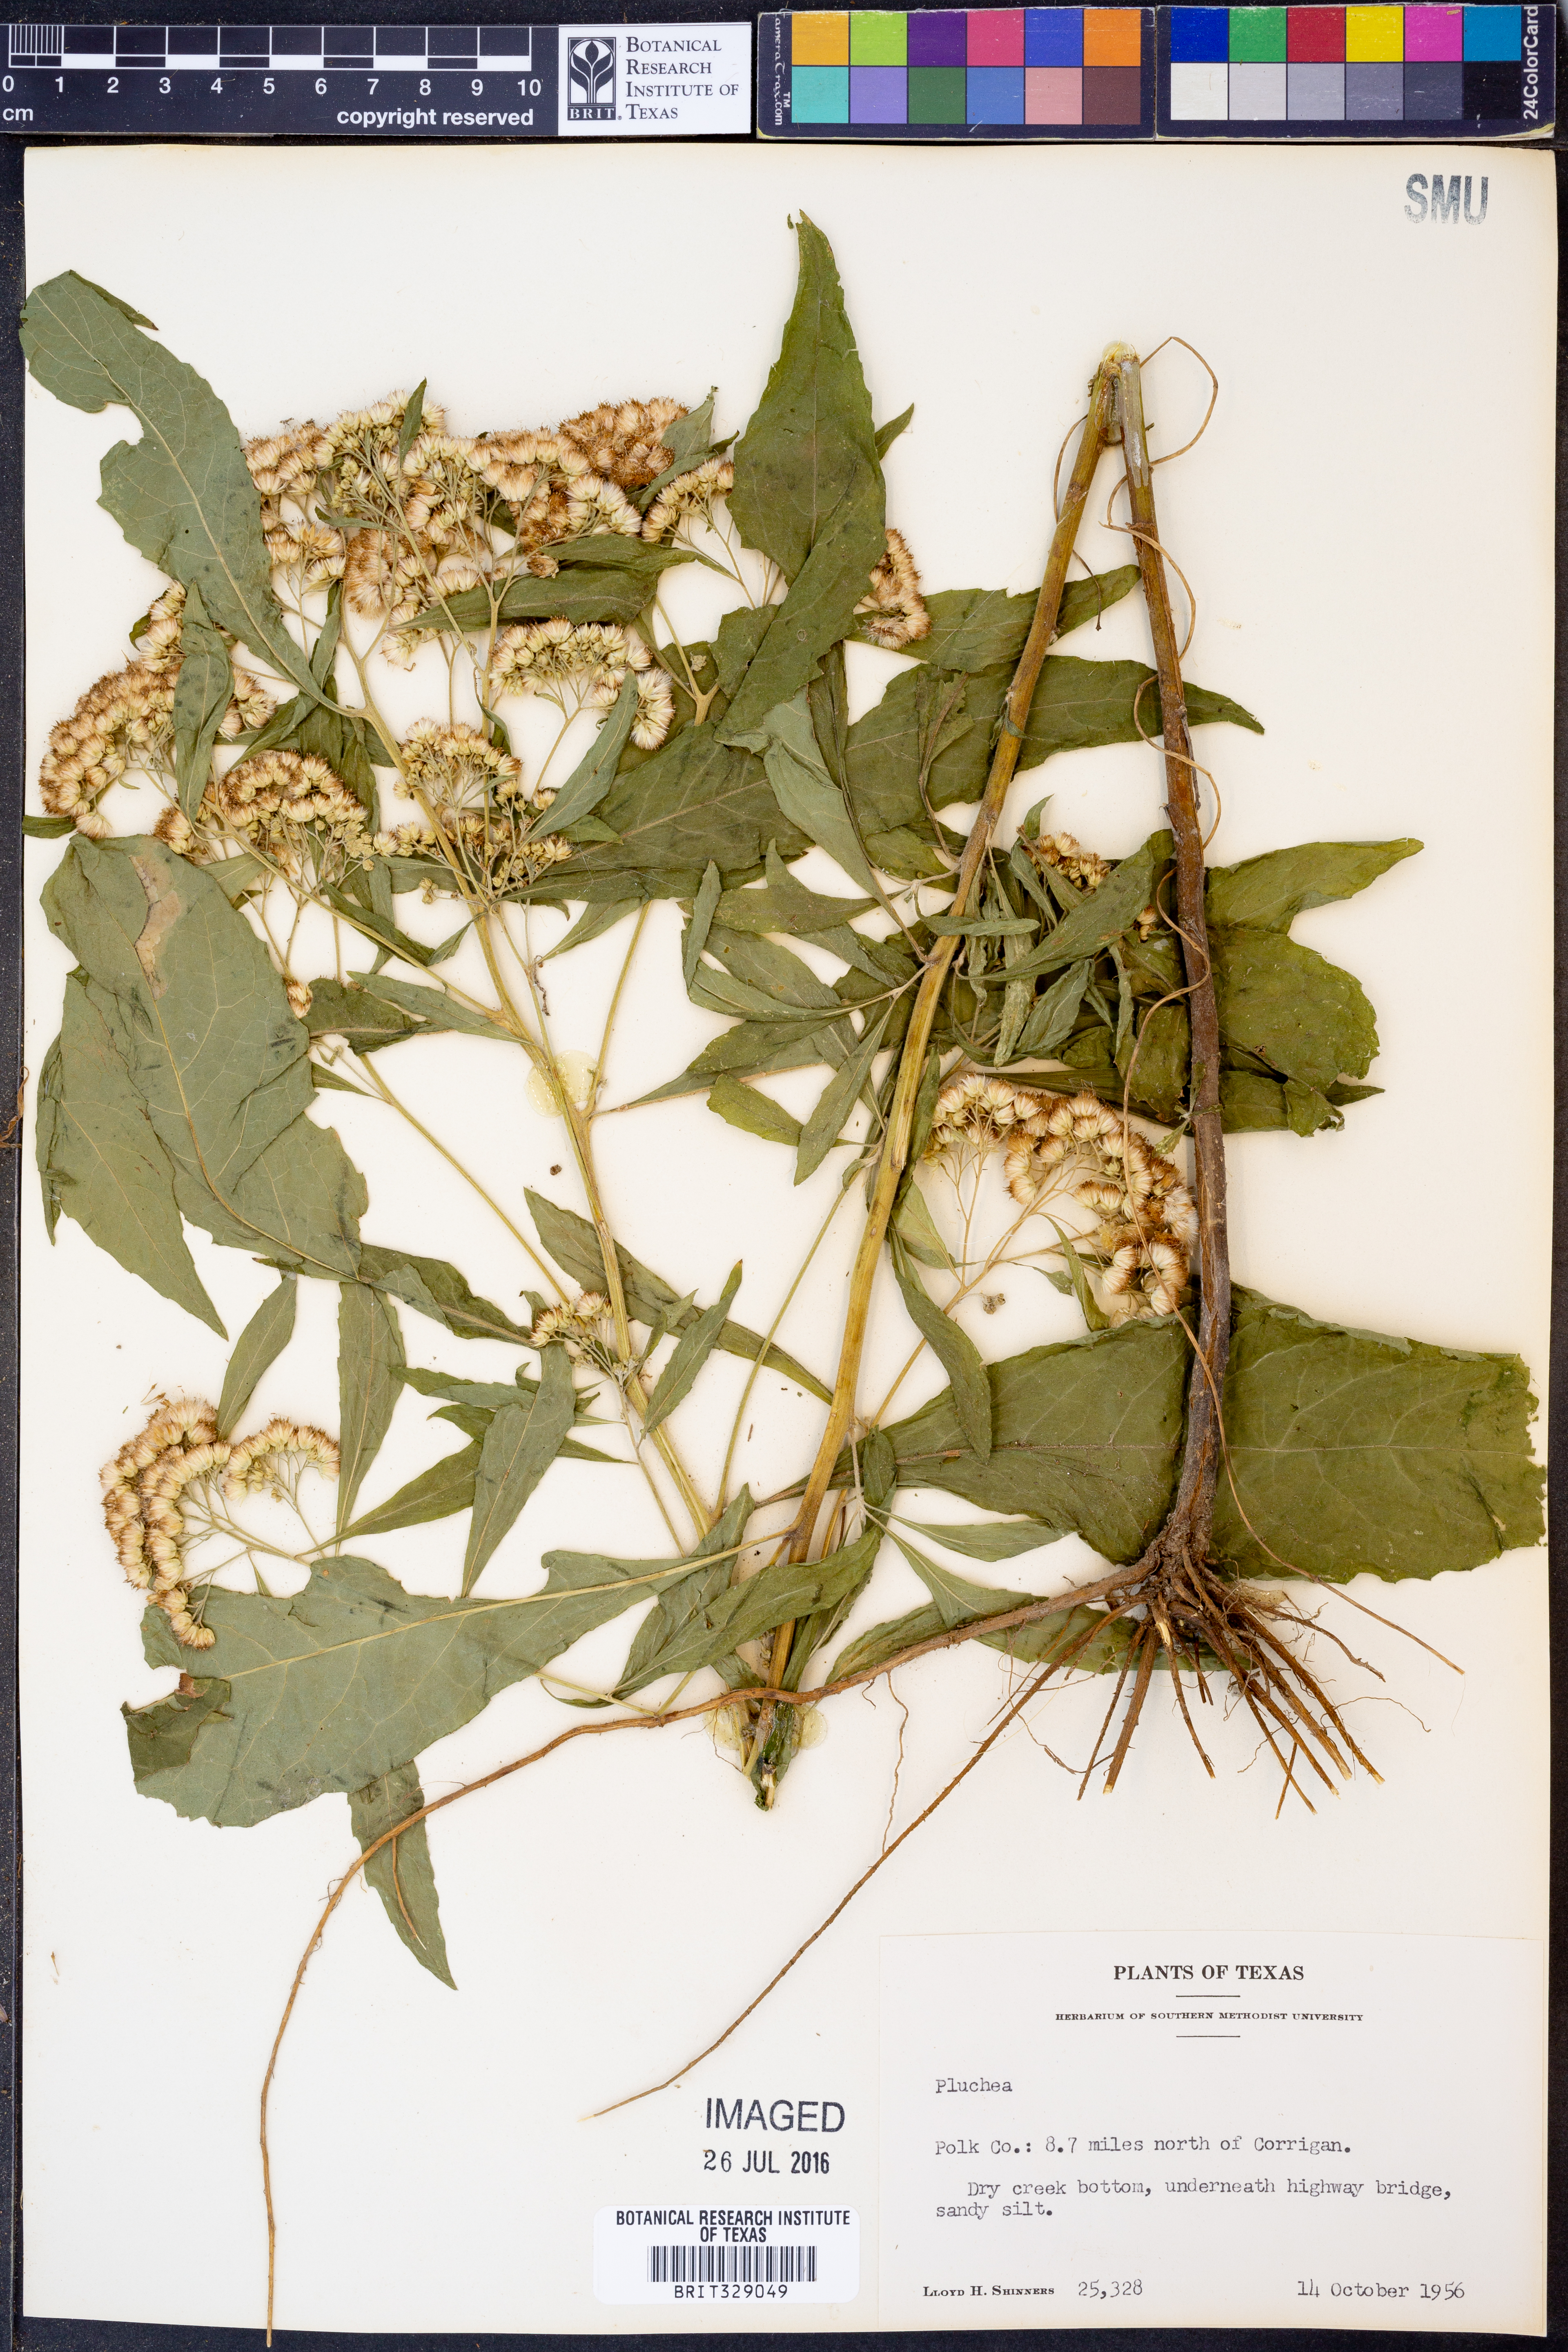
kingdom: Plantae
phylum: Tracheophyta
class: Magnoliopsida
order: Asterales
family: Asteraceae
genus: Pluchea
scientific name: Pluchea
